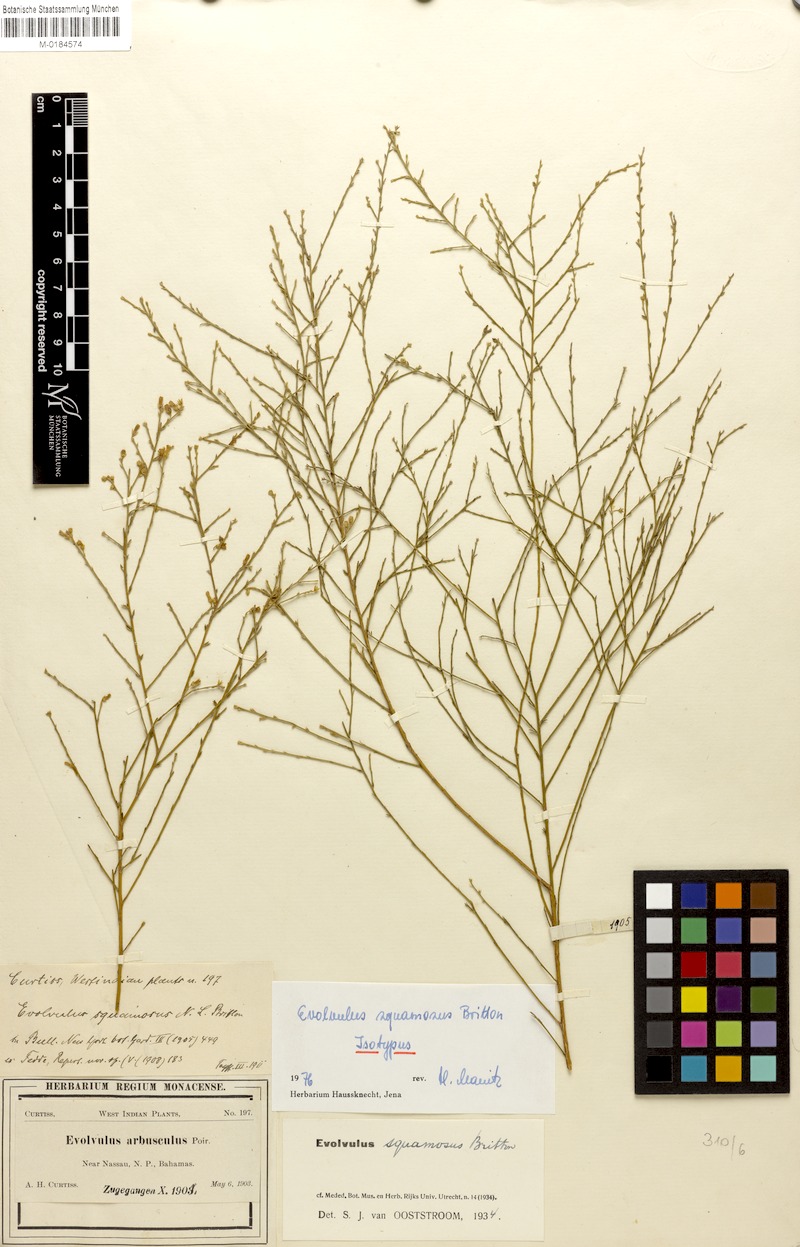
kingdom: Plantae
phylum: Tracheophyta
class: Magnoliopsida
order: Solanales
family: Convolvulaceae
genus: Evolvulus
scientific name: Evolvulus squamosus
